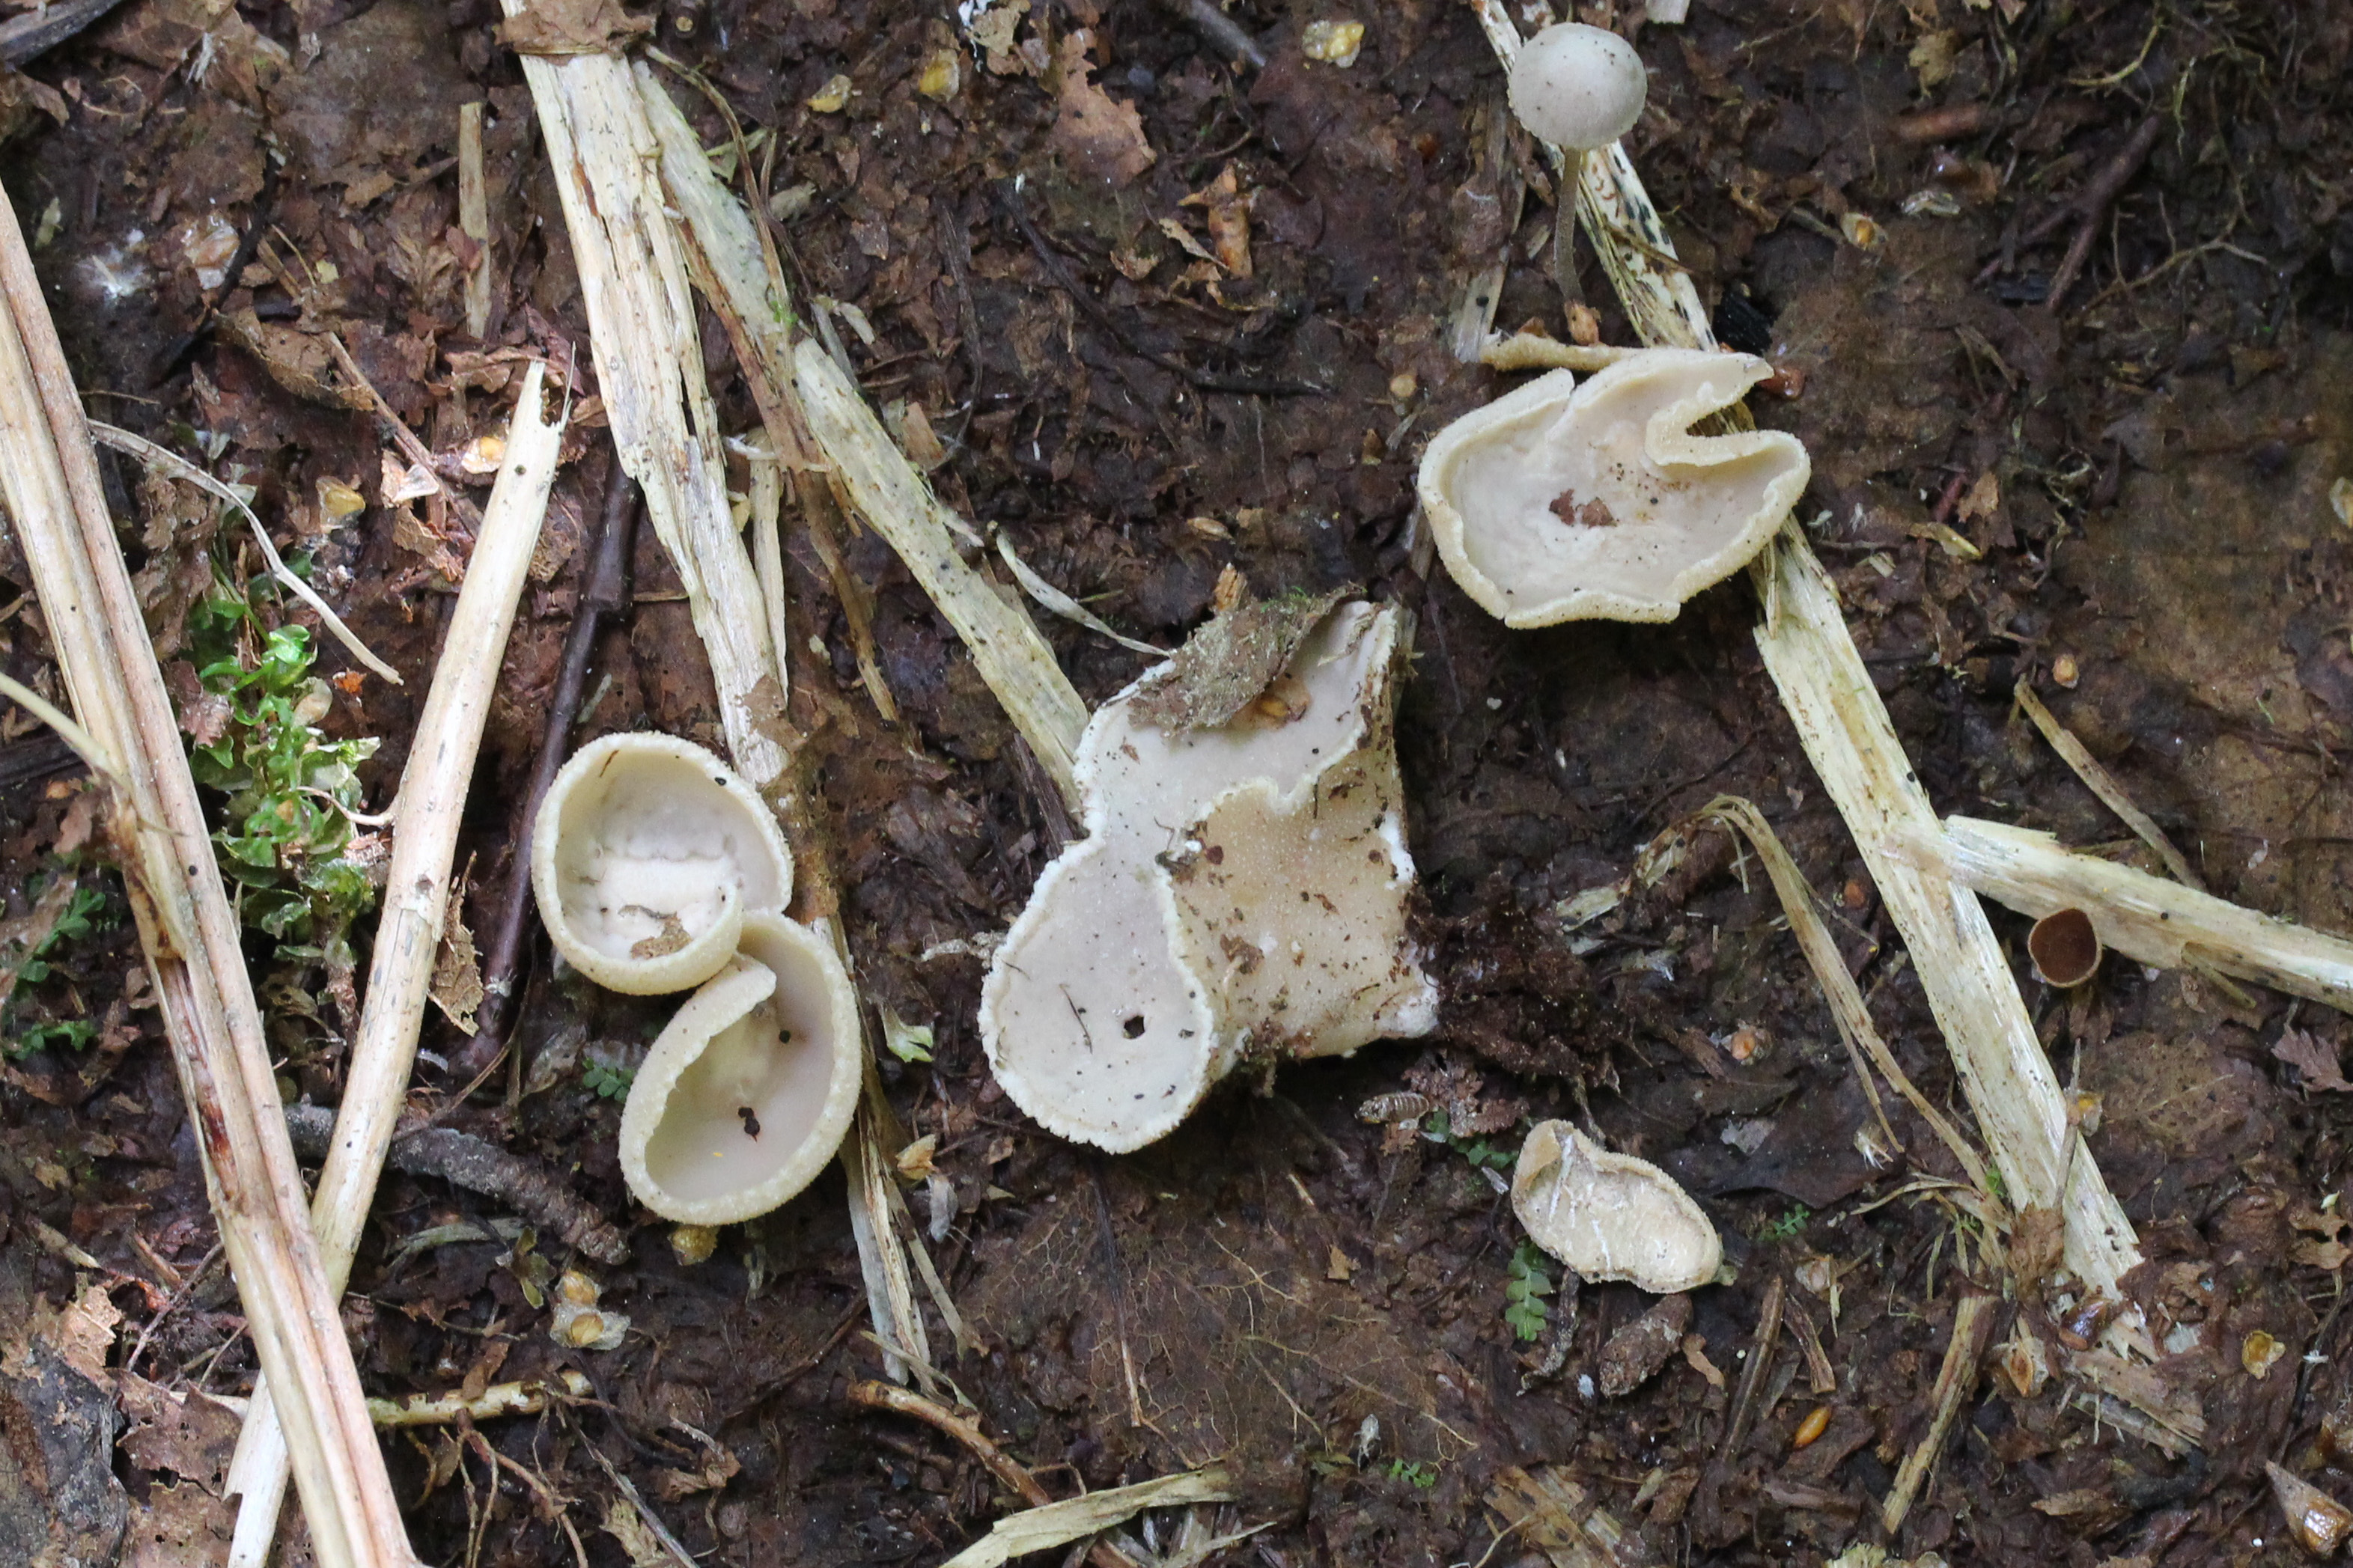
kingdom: Fungi
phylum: Ascomycota
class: Pezizomycetes
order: Pezizales
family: Pyronemataceae
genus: Tarzetta
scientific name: Tarzetta
